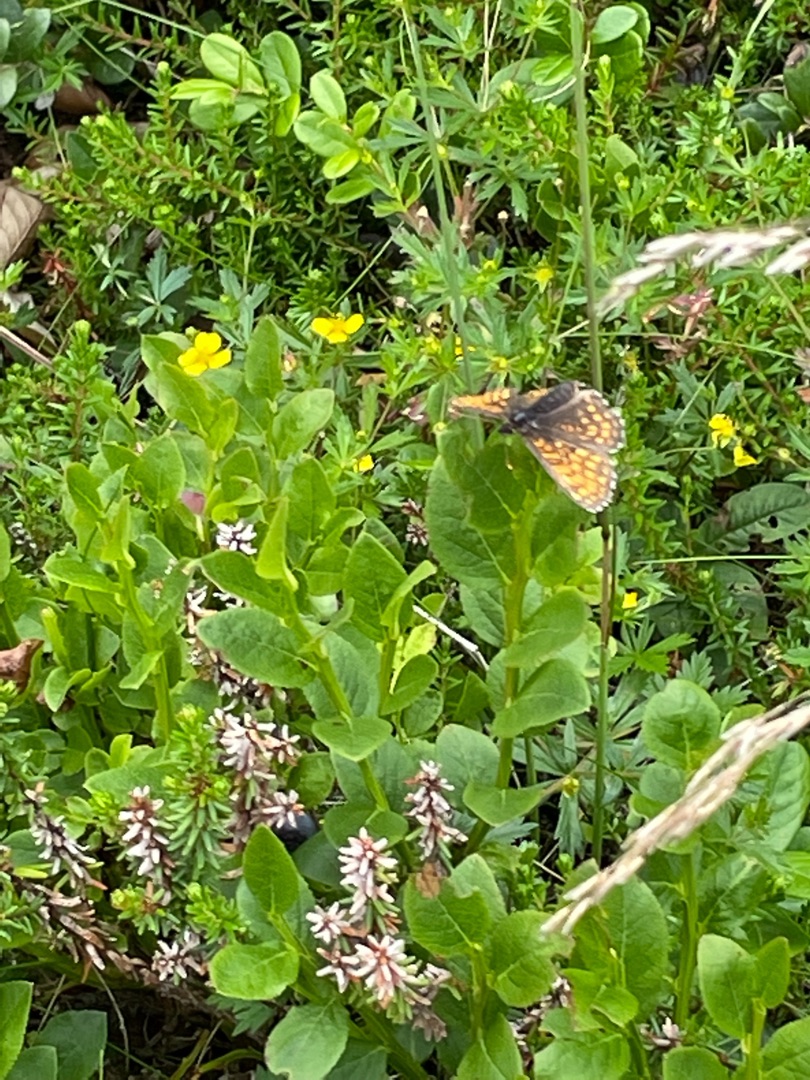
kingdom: Animalia
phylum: Arthropoda
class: Insecta
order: Lepidoptera
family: Nymphalidae
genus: Mellicta
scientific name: Mellicta athalia
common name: Brun pletvinge
